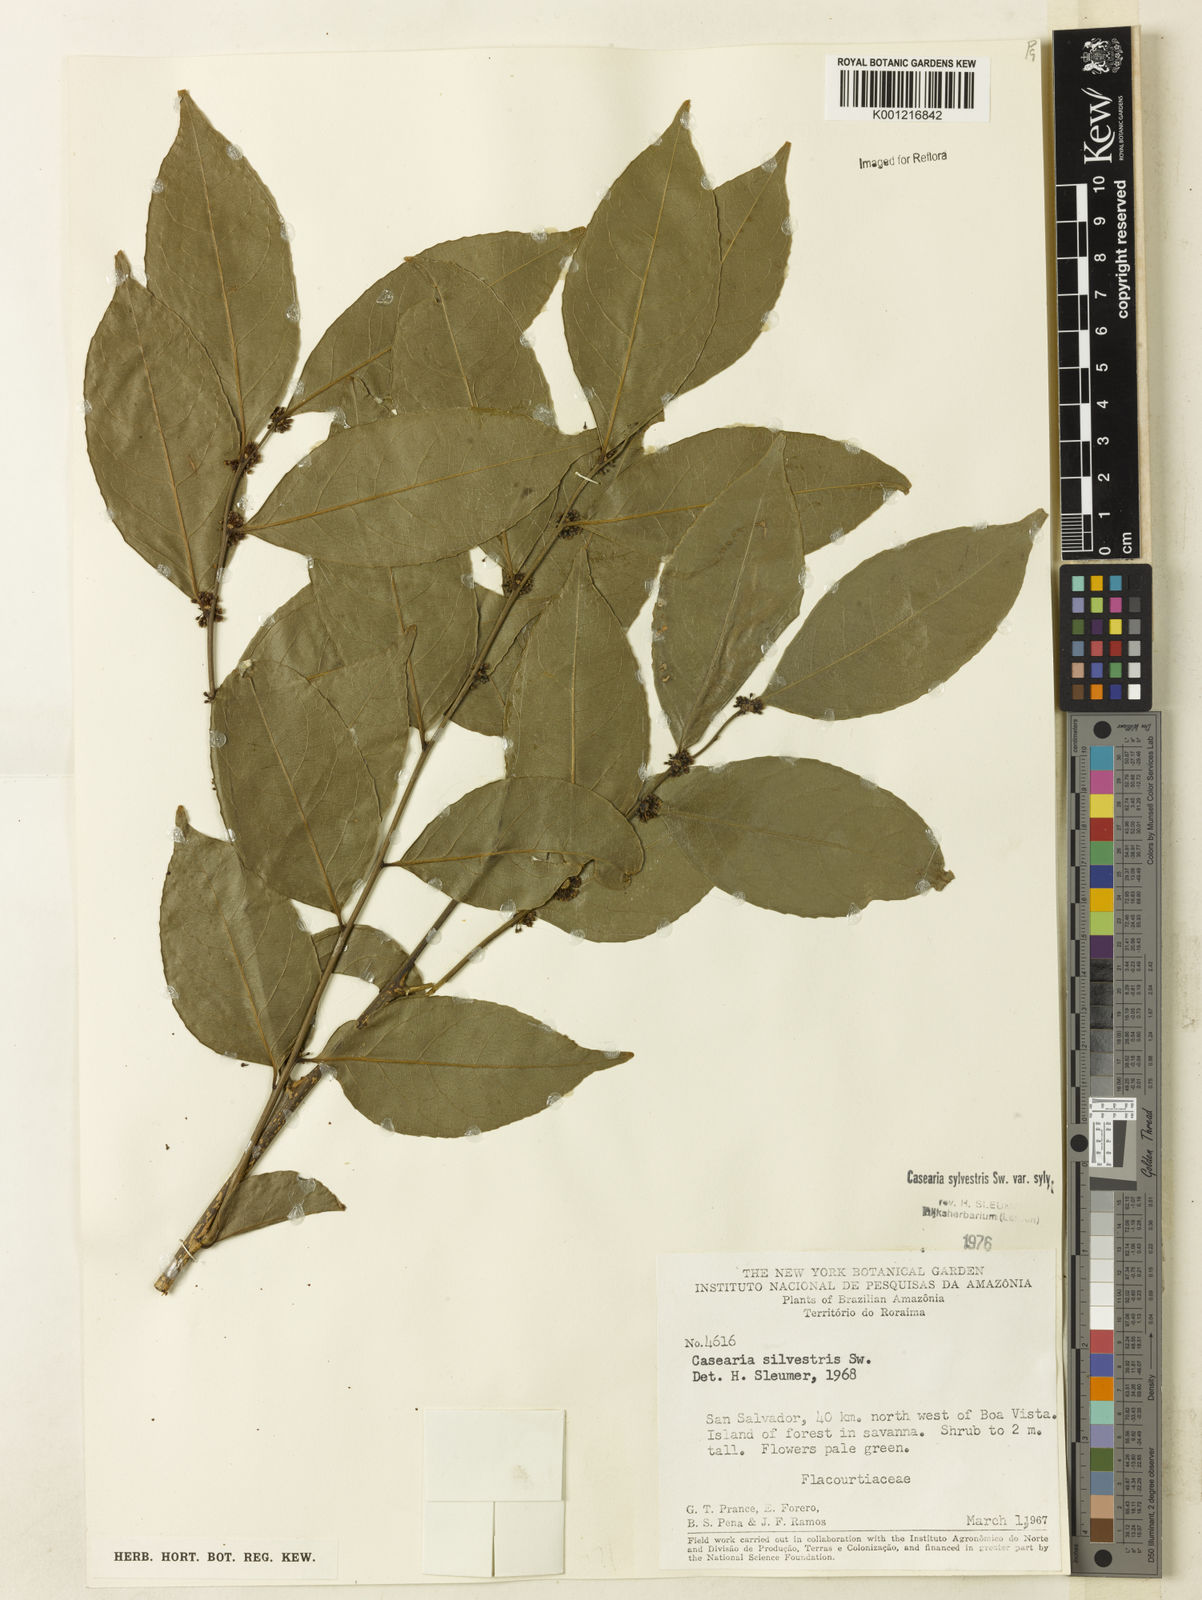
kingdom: Plantae
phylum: Tracheophyta
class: Magnoliopsida
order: Malpighiales
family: Salicaceae
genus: Casearia
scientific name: Casearia sylvestris
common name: Wild sage
